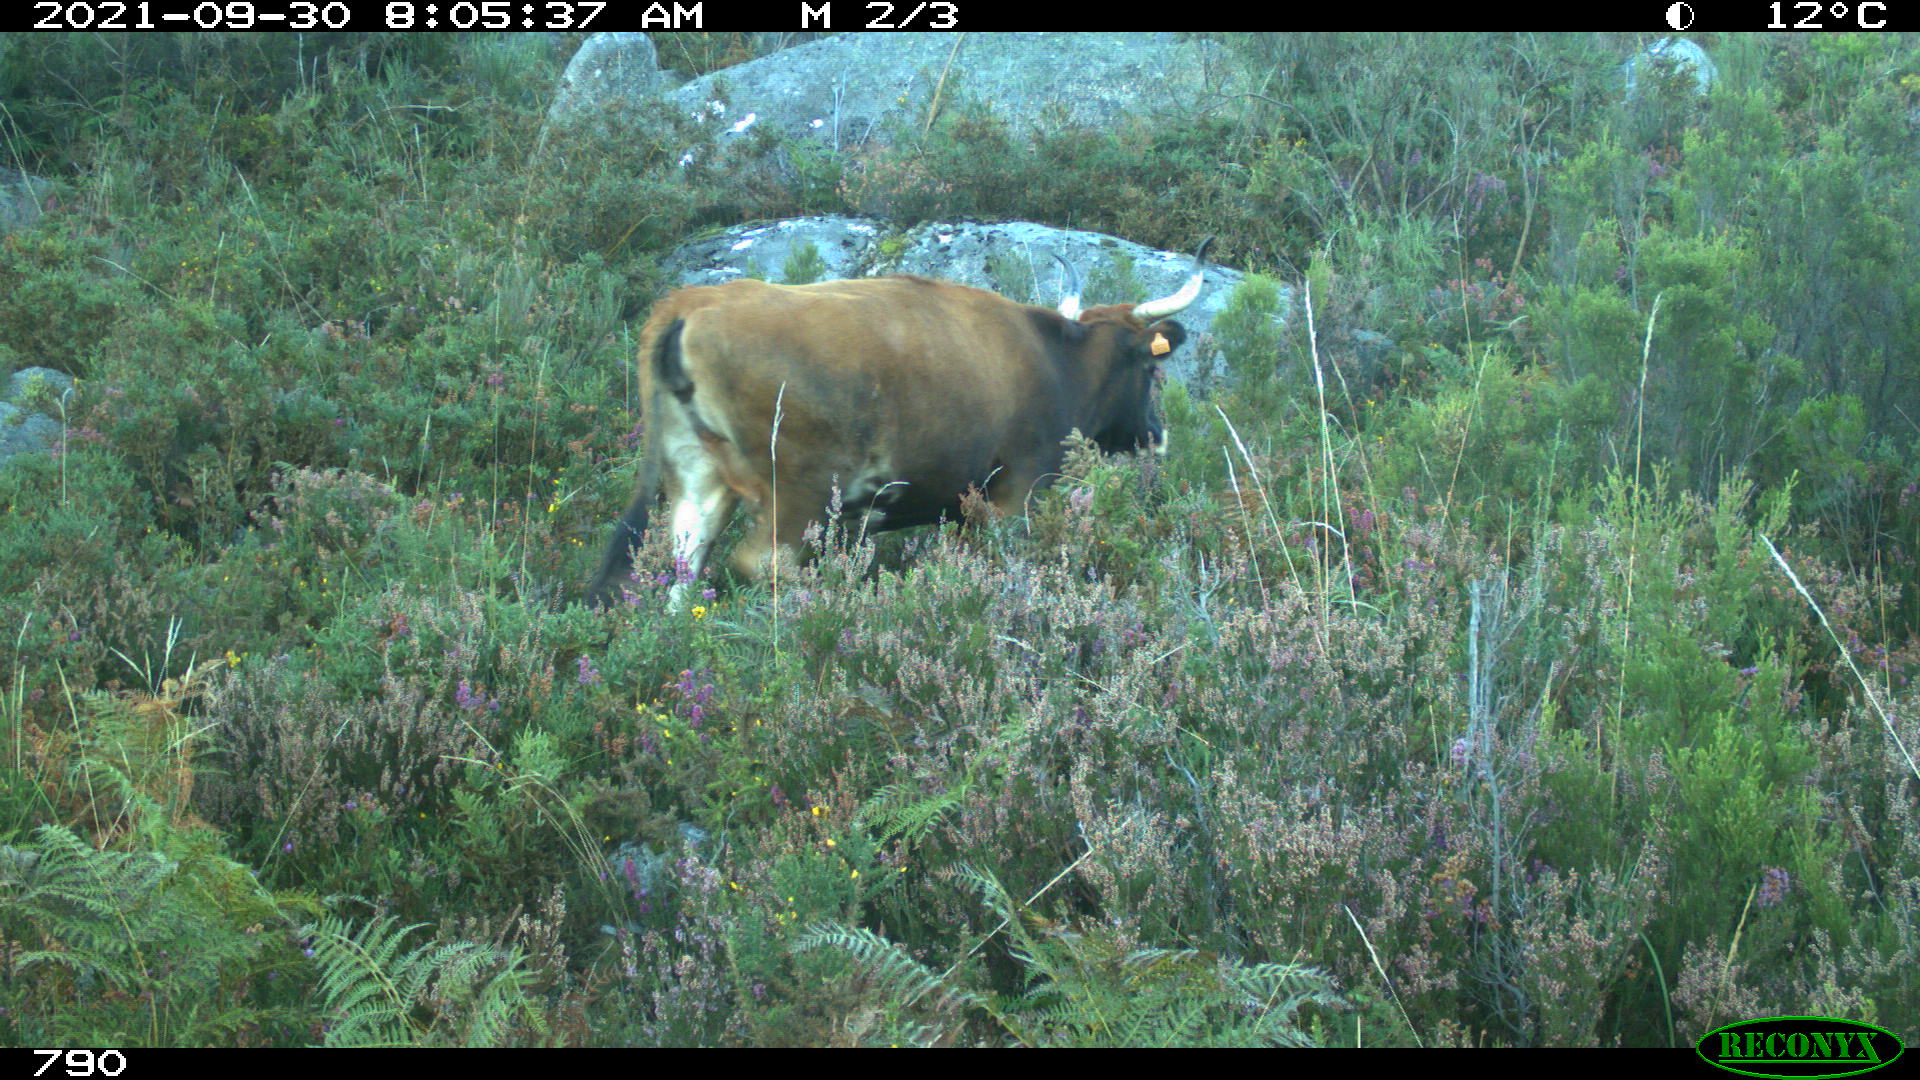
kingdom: Animalia
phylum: Chordata
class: Mammalia
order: Artiodactyla
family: Bovidae
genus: Bos
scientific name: Bos taurus
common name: Domesticated cattle
